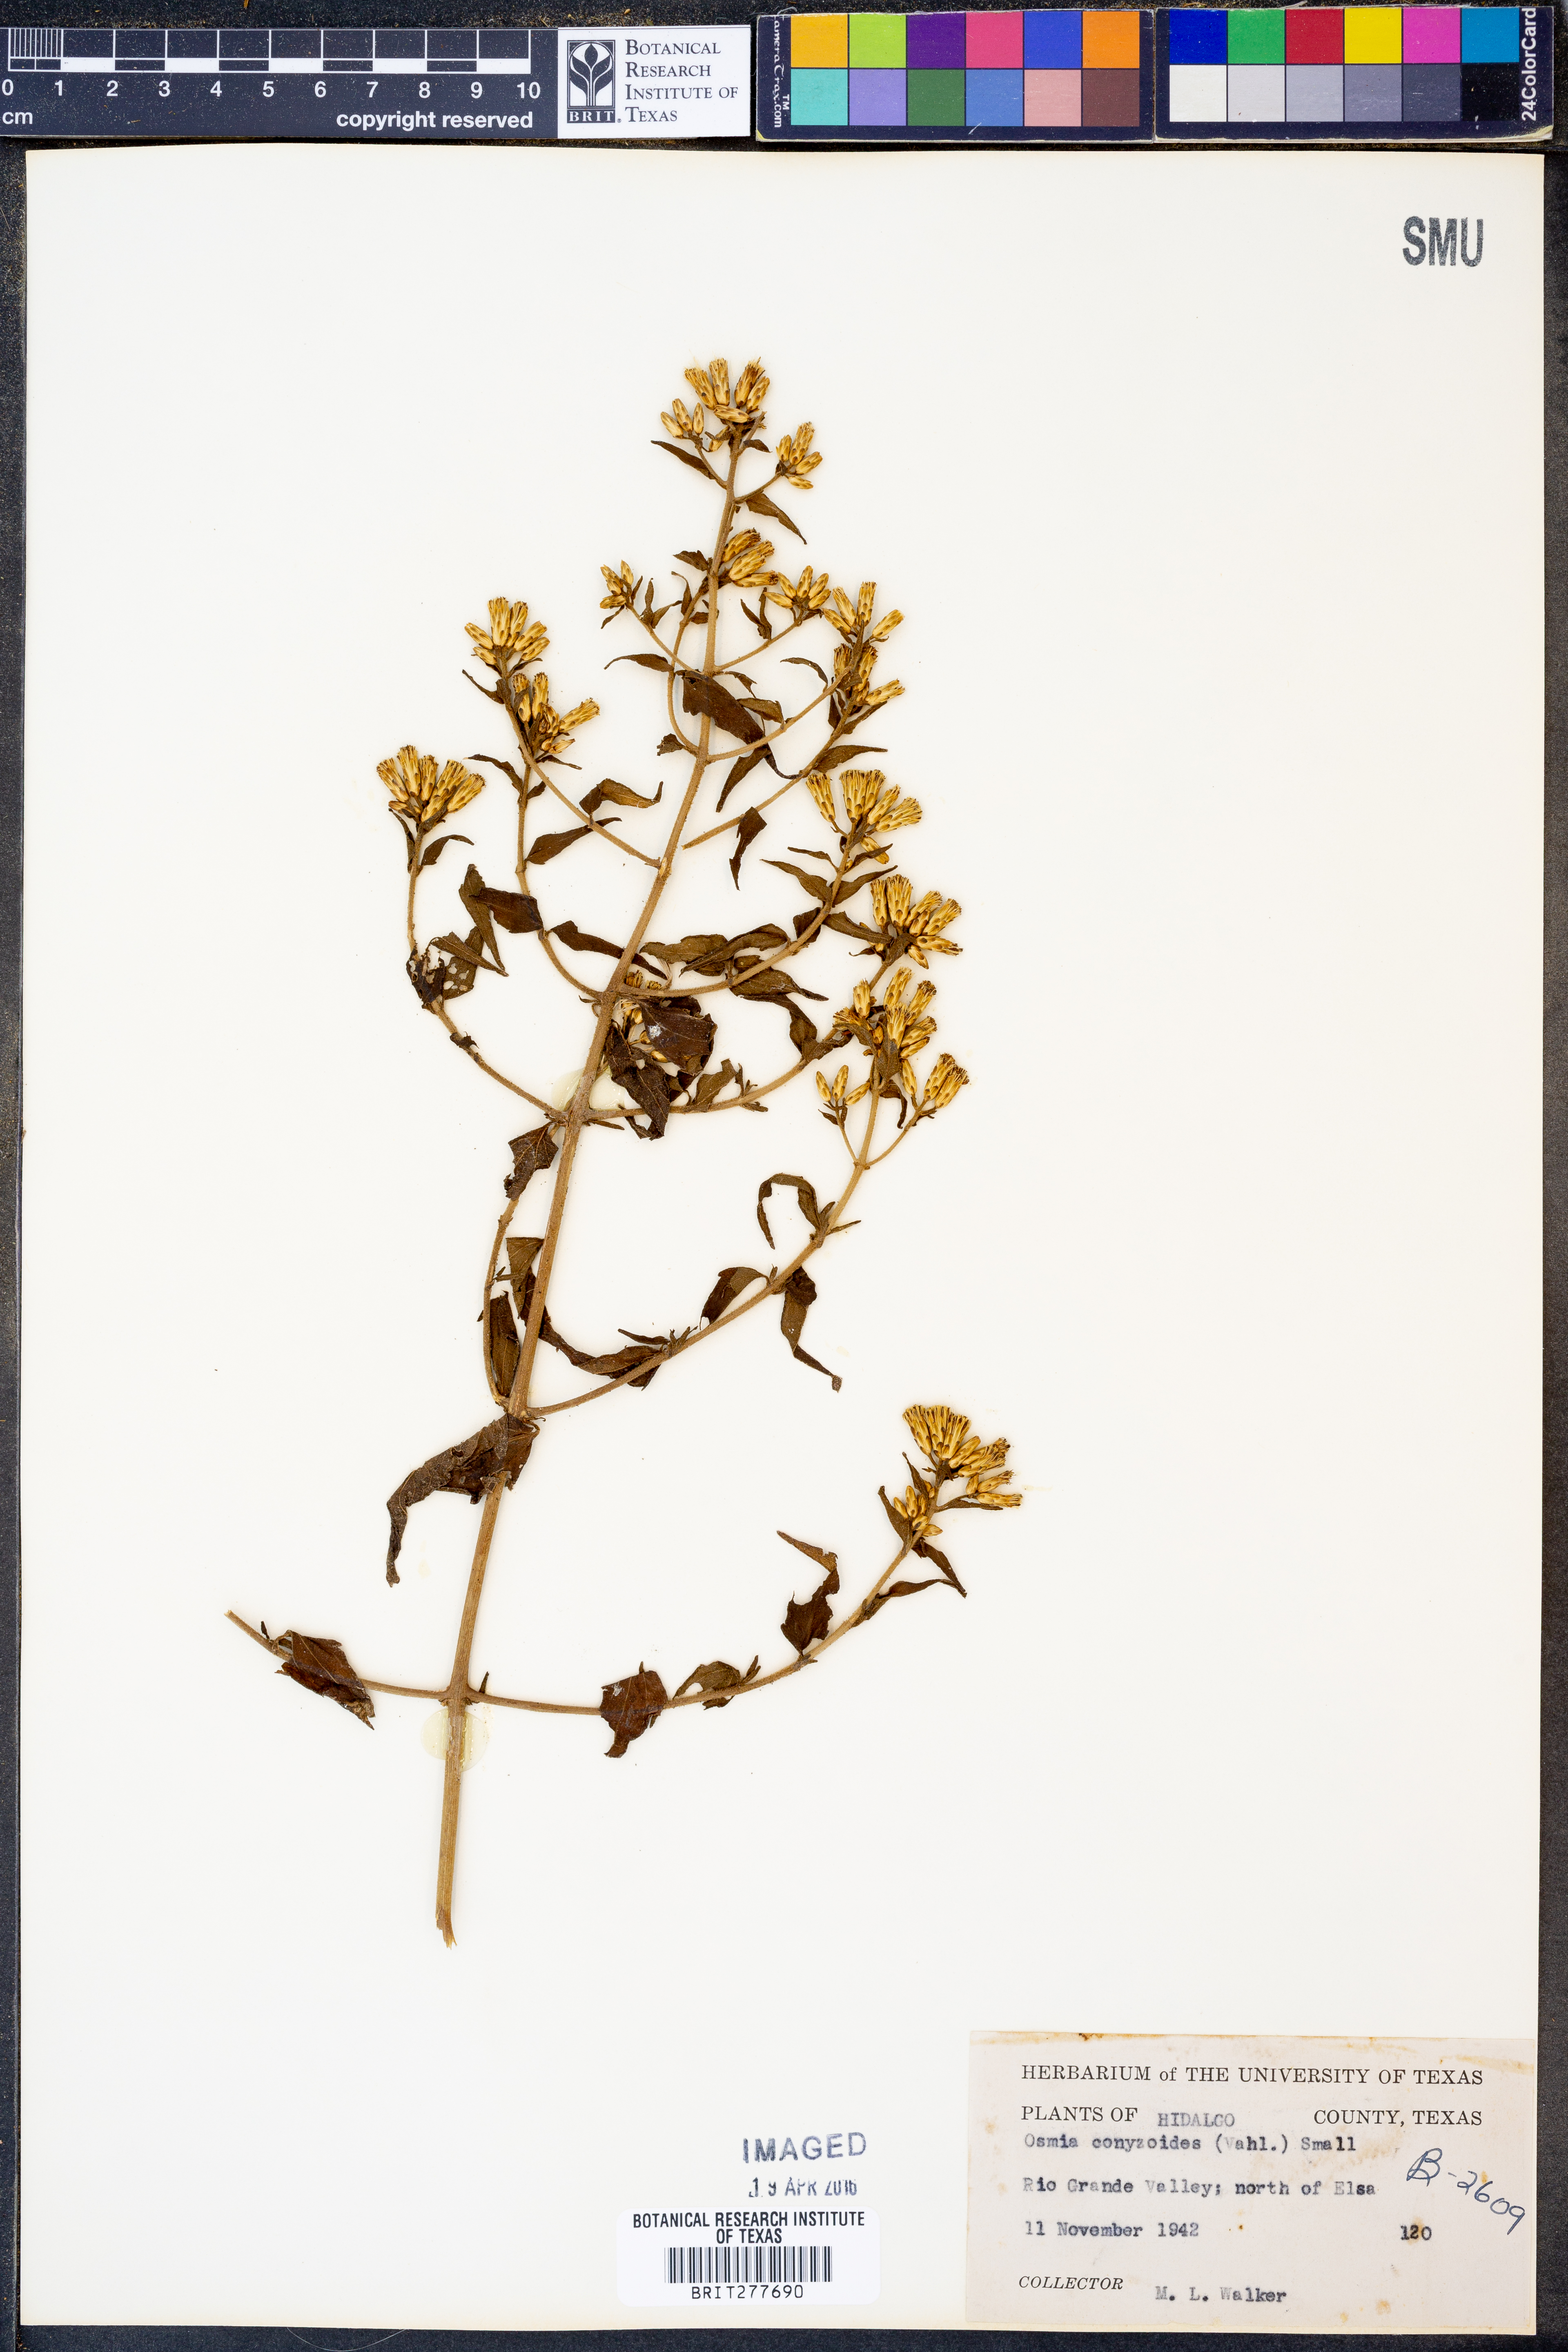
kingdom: Plantae
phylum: Tracheophyta
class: Magnoliopsida
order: Asterales
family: Asteraceae
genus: Lepidaploa
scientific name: Lepidaploa arborescens
